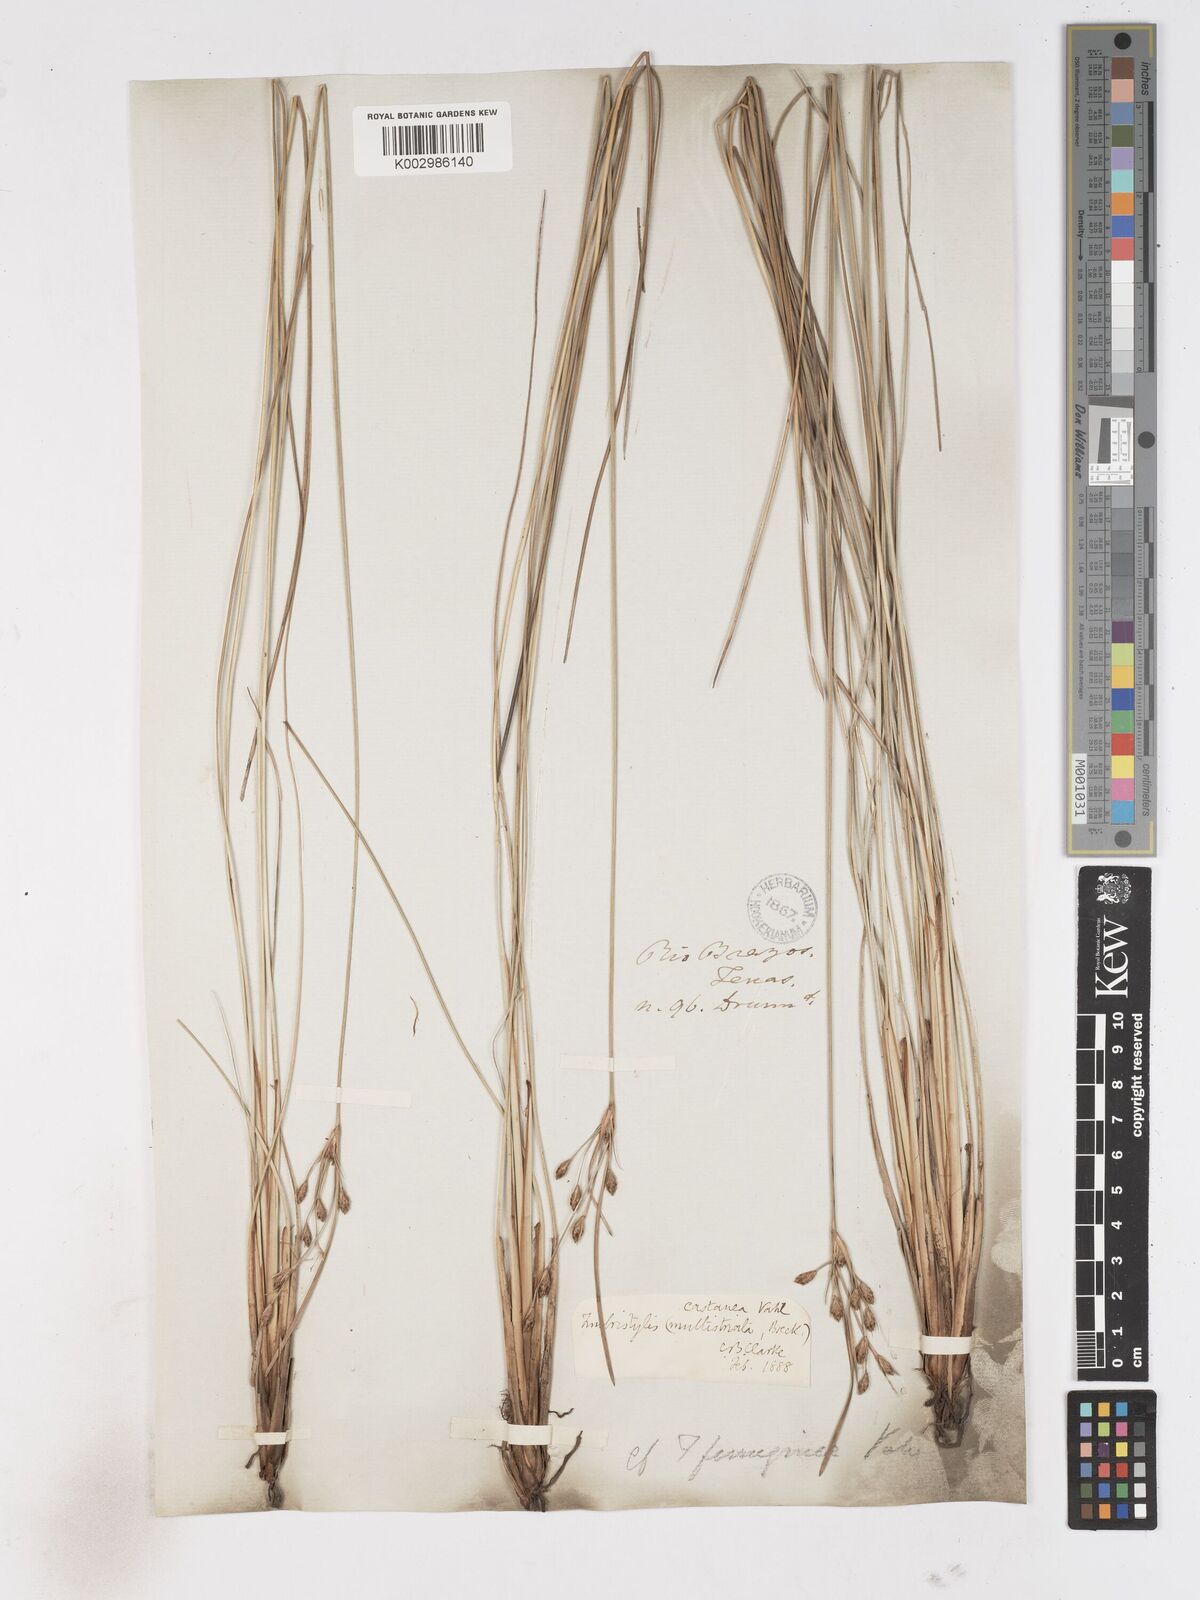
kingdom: Plantae
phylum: Tracheophyta
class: Liliopsida
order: Poales
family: Cyperaceae
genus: Fimbristylis
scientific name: Fimbristylis spadicea
